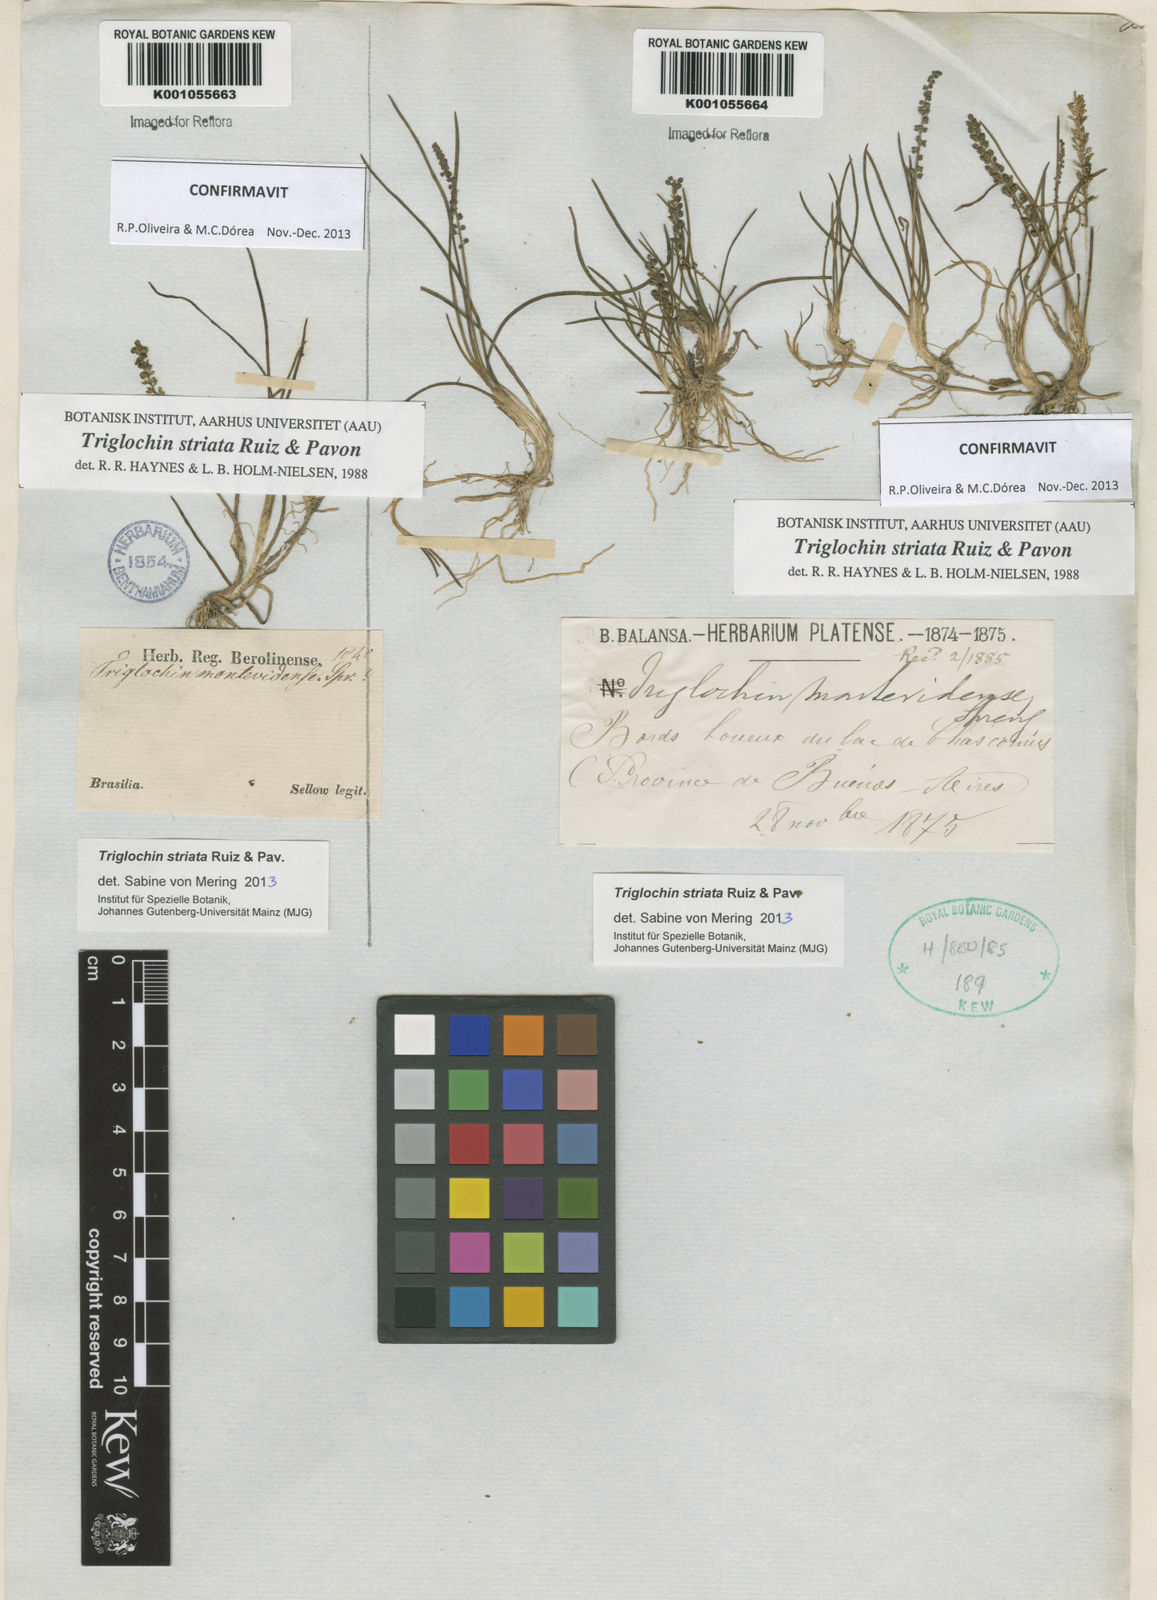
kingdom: Plantae
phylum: Tracheophyta
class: Liliopsida
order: Alismatales
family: Juncaginaceae
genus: Triglochin
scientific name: Triglochin striata
